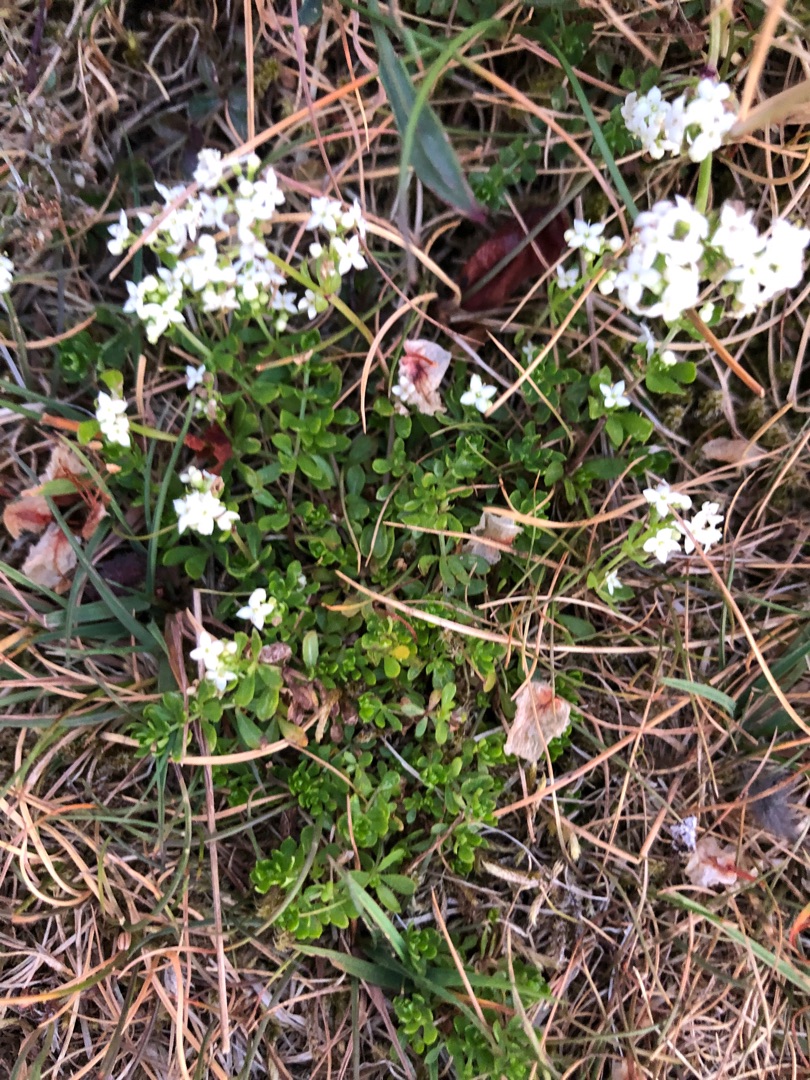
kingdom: Plantae
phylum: Tracheophyta
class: Magnoliopsida
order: Gentianales
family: Rubiaceae
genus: Galium
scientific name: Galium saxatile
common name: Lyng-snerre
